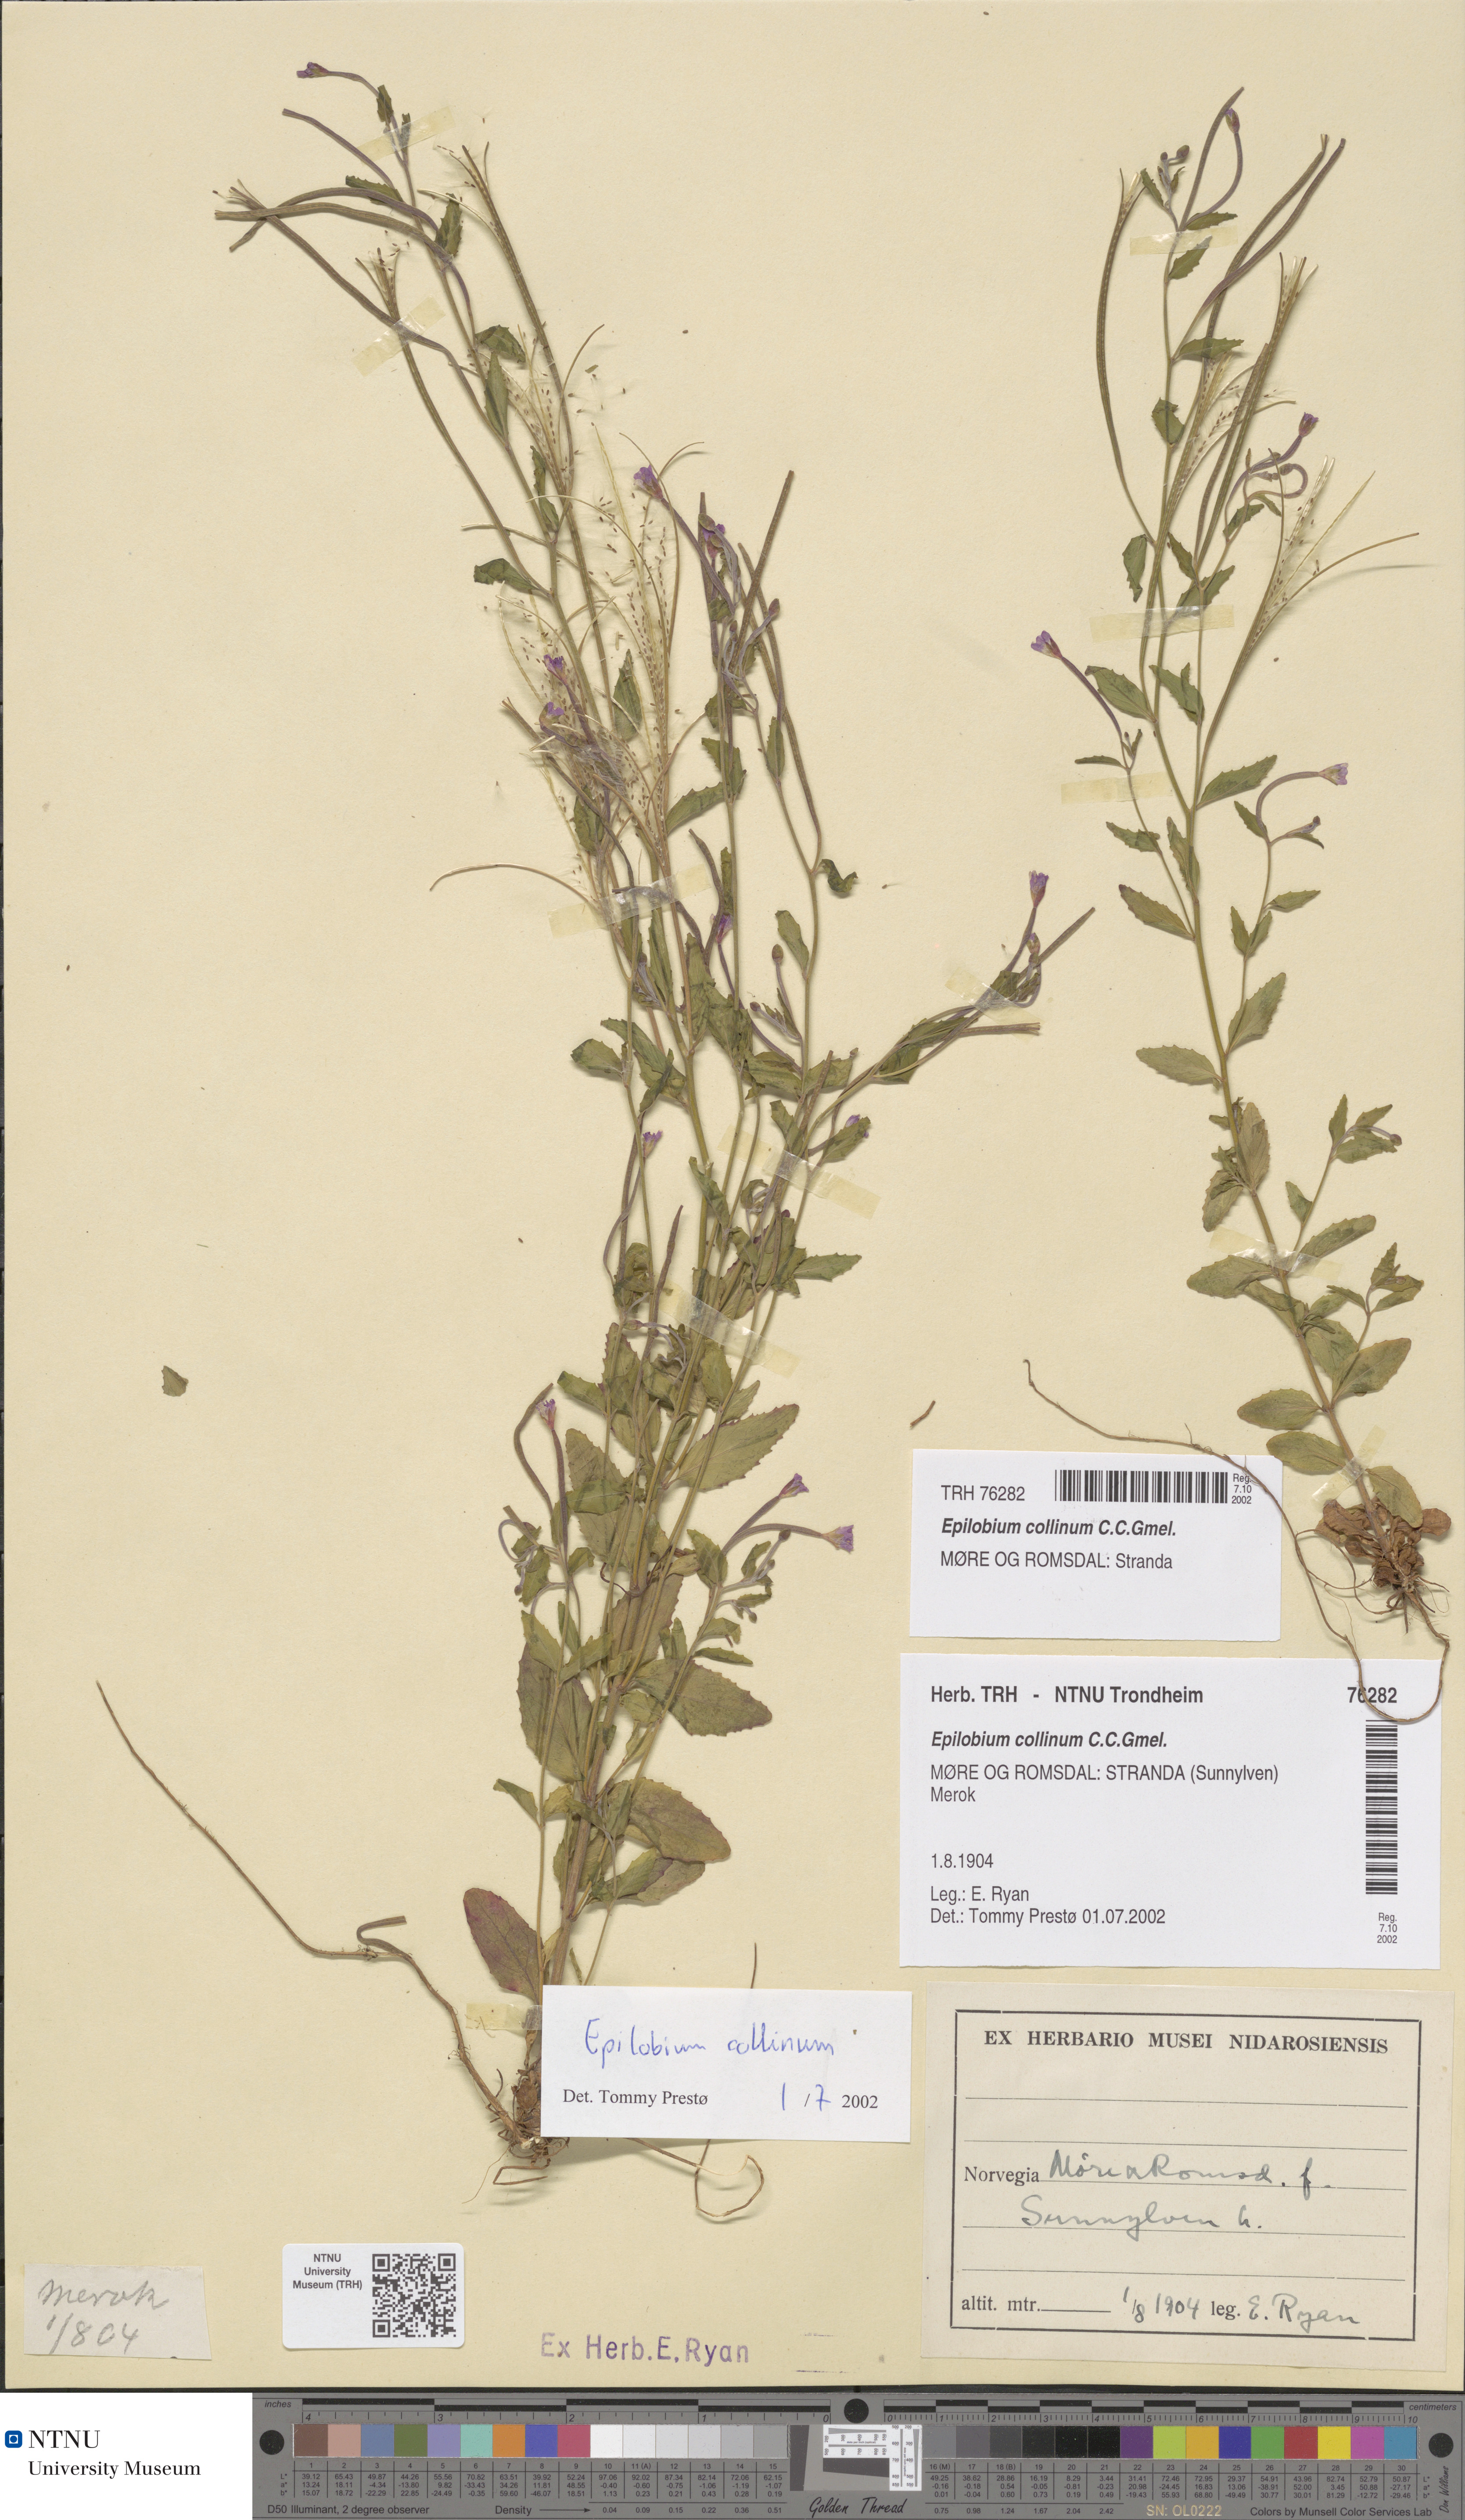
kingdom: Plantae
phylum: Tracheophyta
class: Magnoliopsida
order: Myrtales
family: Onagraceae
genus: Epilobium
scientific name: Epilobium collinum
